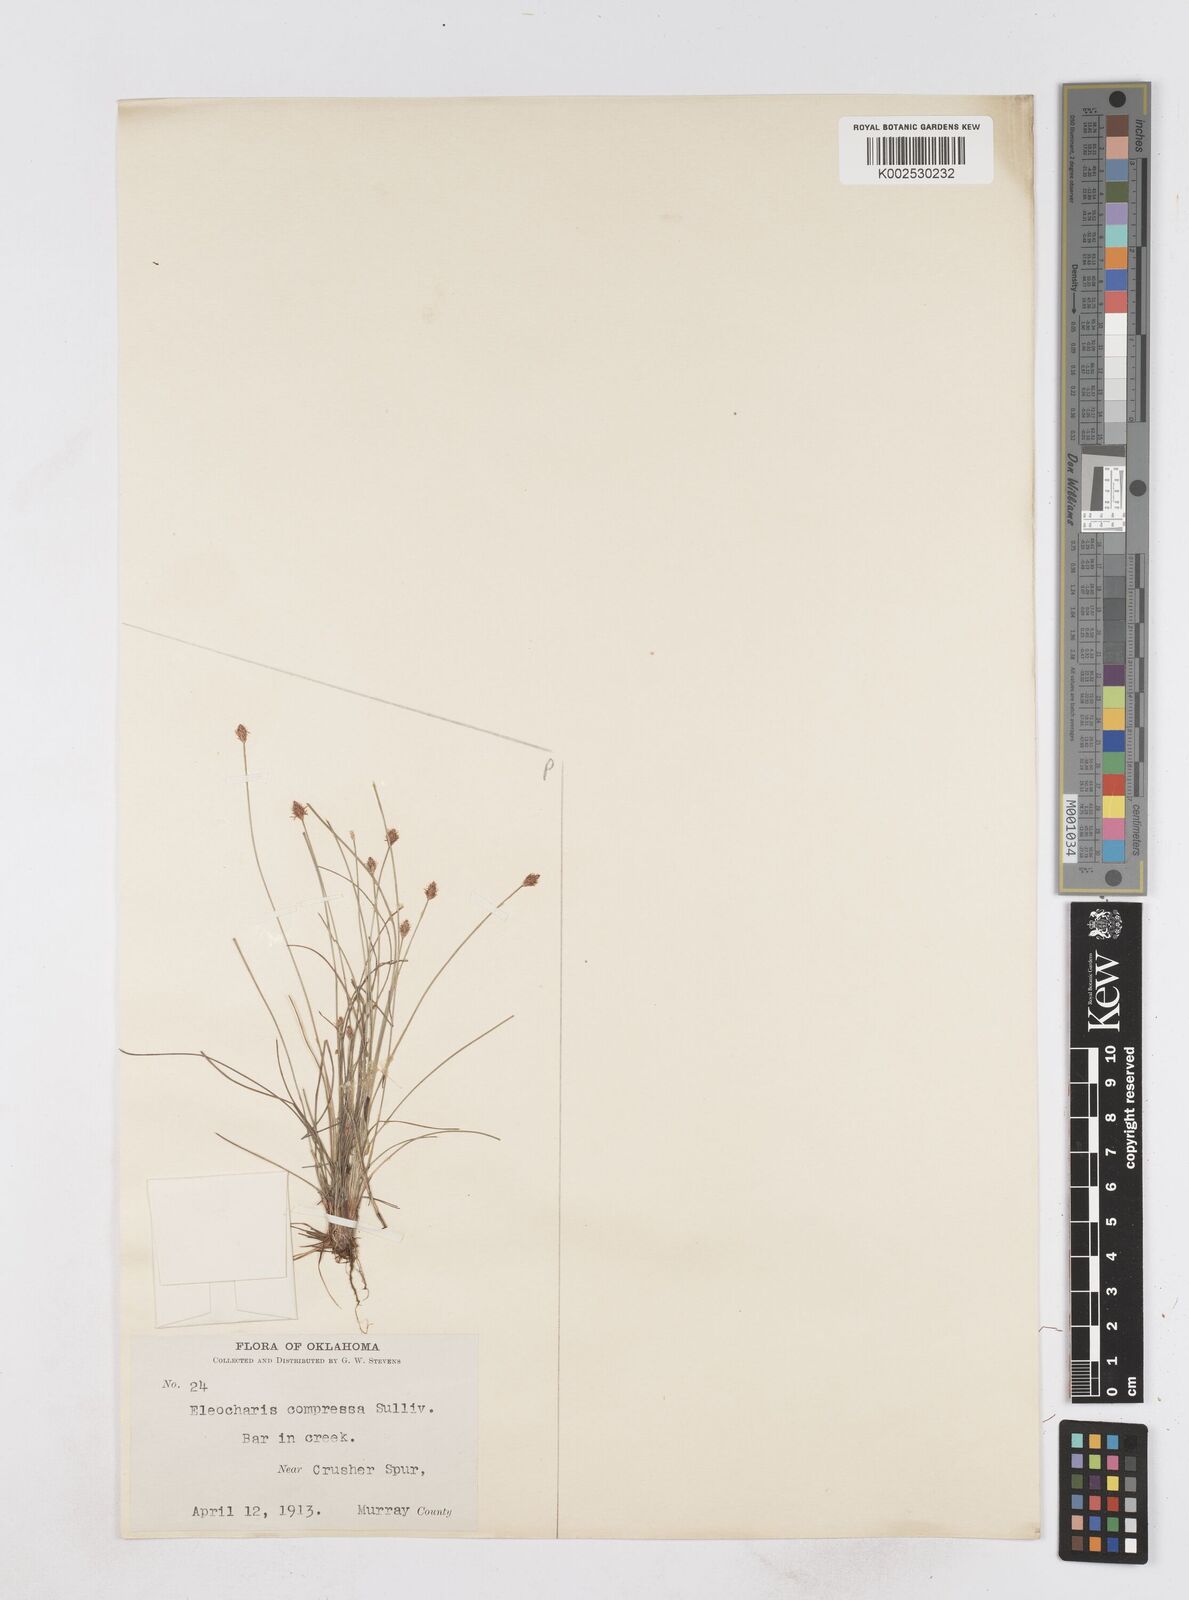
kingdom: Plantae
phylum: Tracheophyta
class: Liliopsida
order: Poales
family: Cyperaceae
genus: Eleocharis
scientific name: Eleocharis compressa
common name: Flat-stem spike-rush
